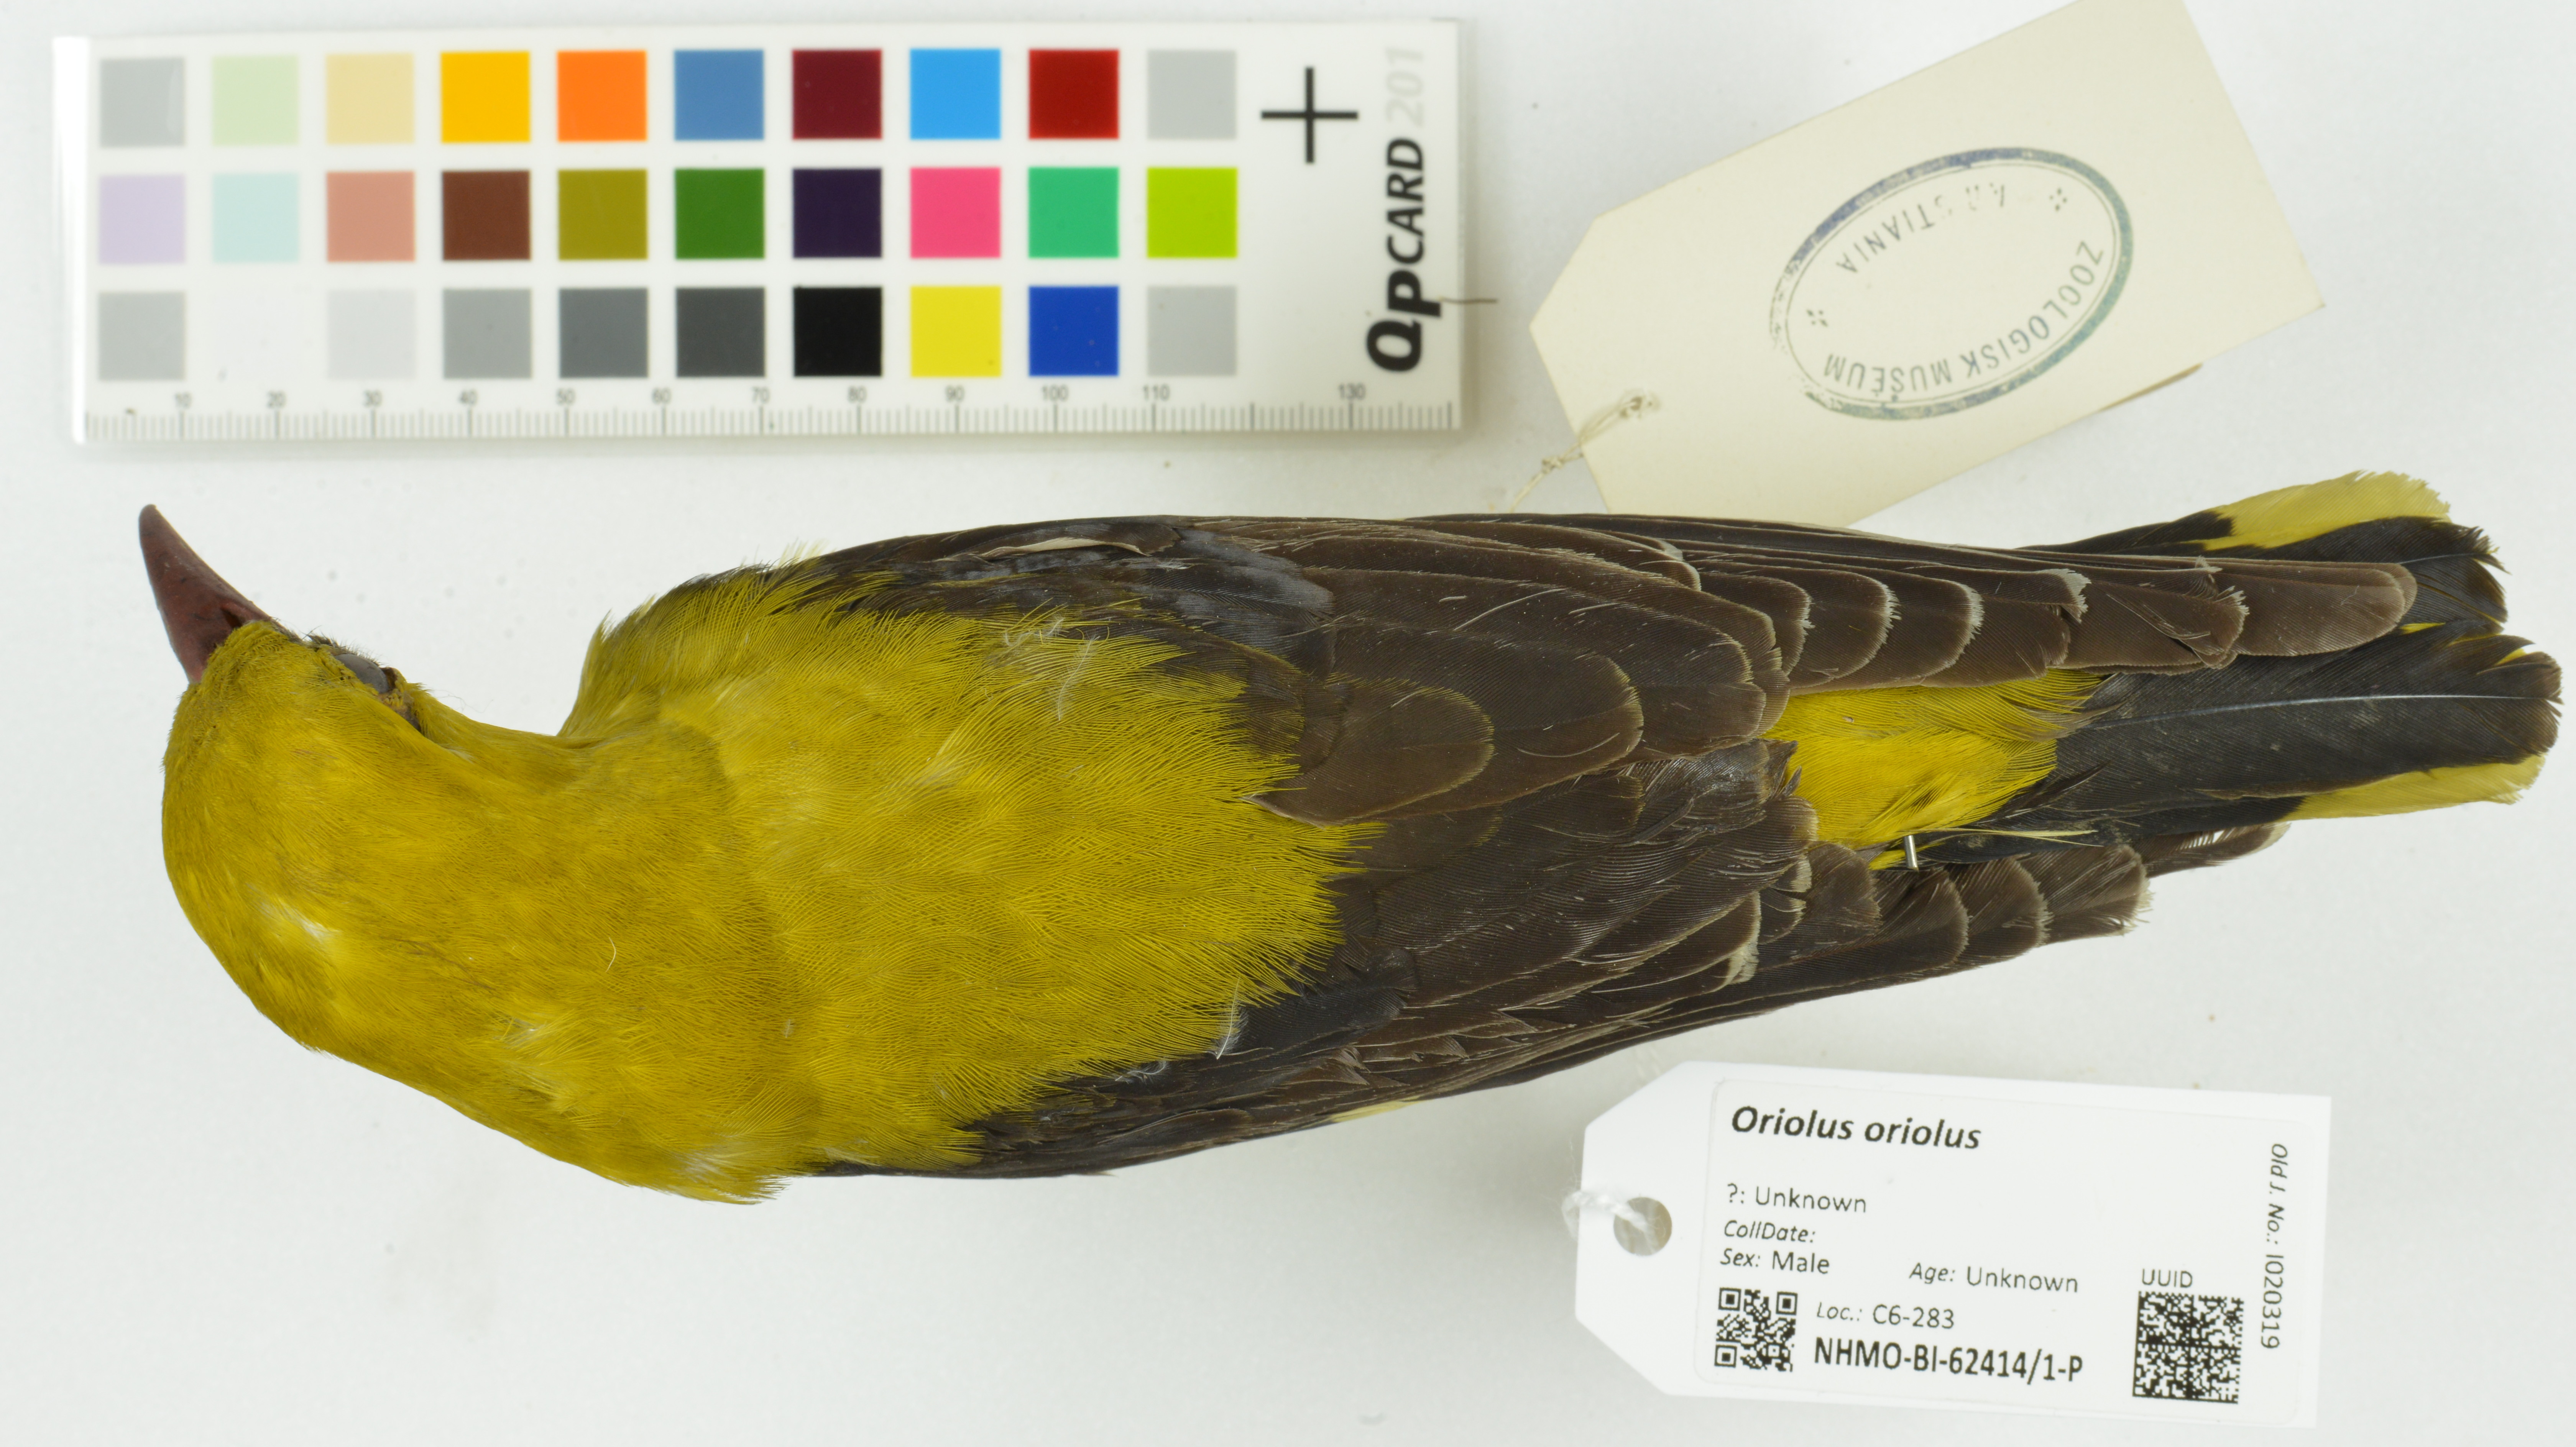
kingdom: Animalia
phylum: Chordata
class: Aves
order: Passeriformes
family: Oriolidae
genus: Oriolus
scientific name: Oriolus oriolus
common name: Eurasian golden oriole
